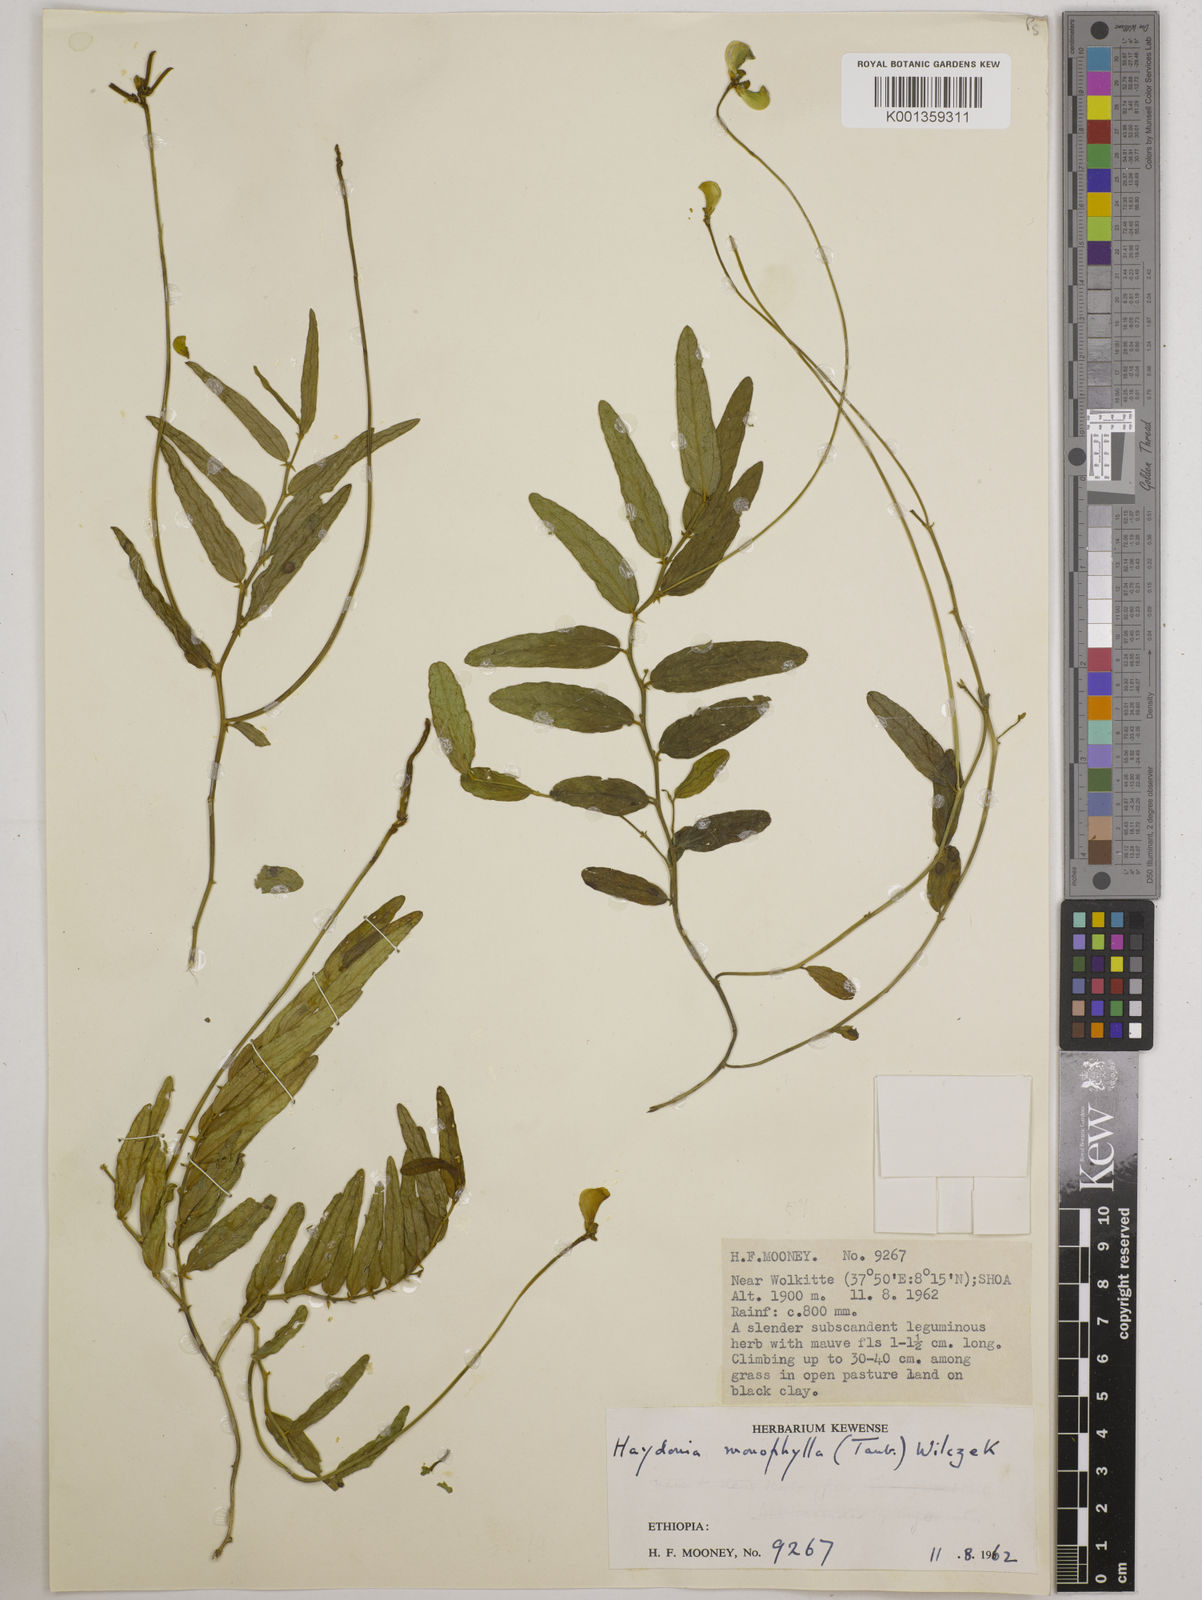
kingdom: Plantae
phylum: Tracheophyta
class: Magnoliopsida
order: Fabales
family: Fabaceae
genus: Vigna
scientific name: Vigna monophylla
